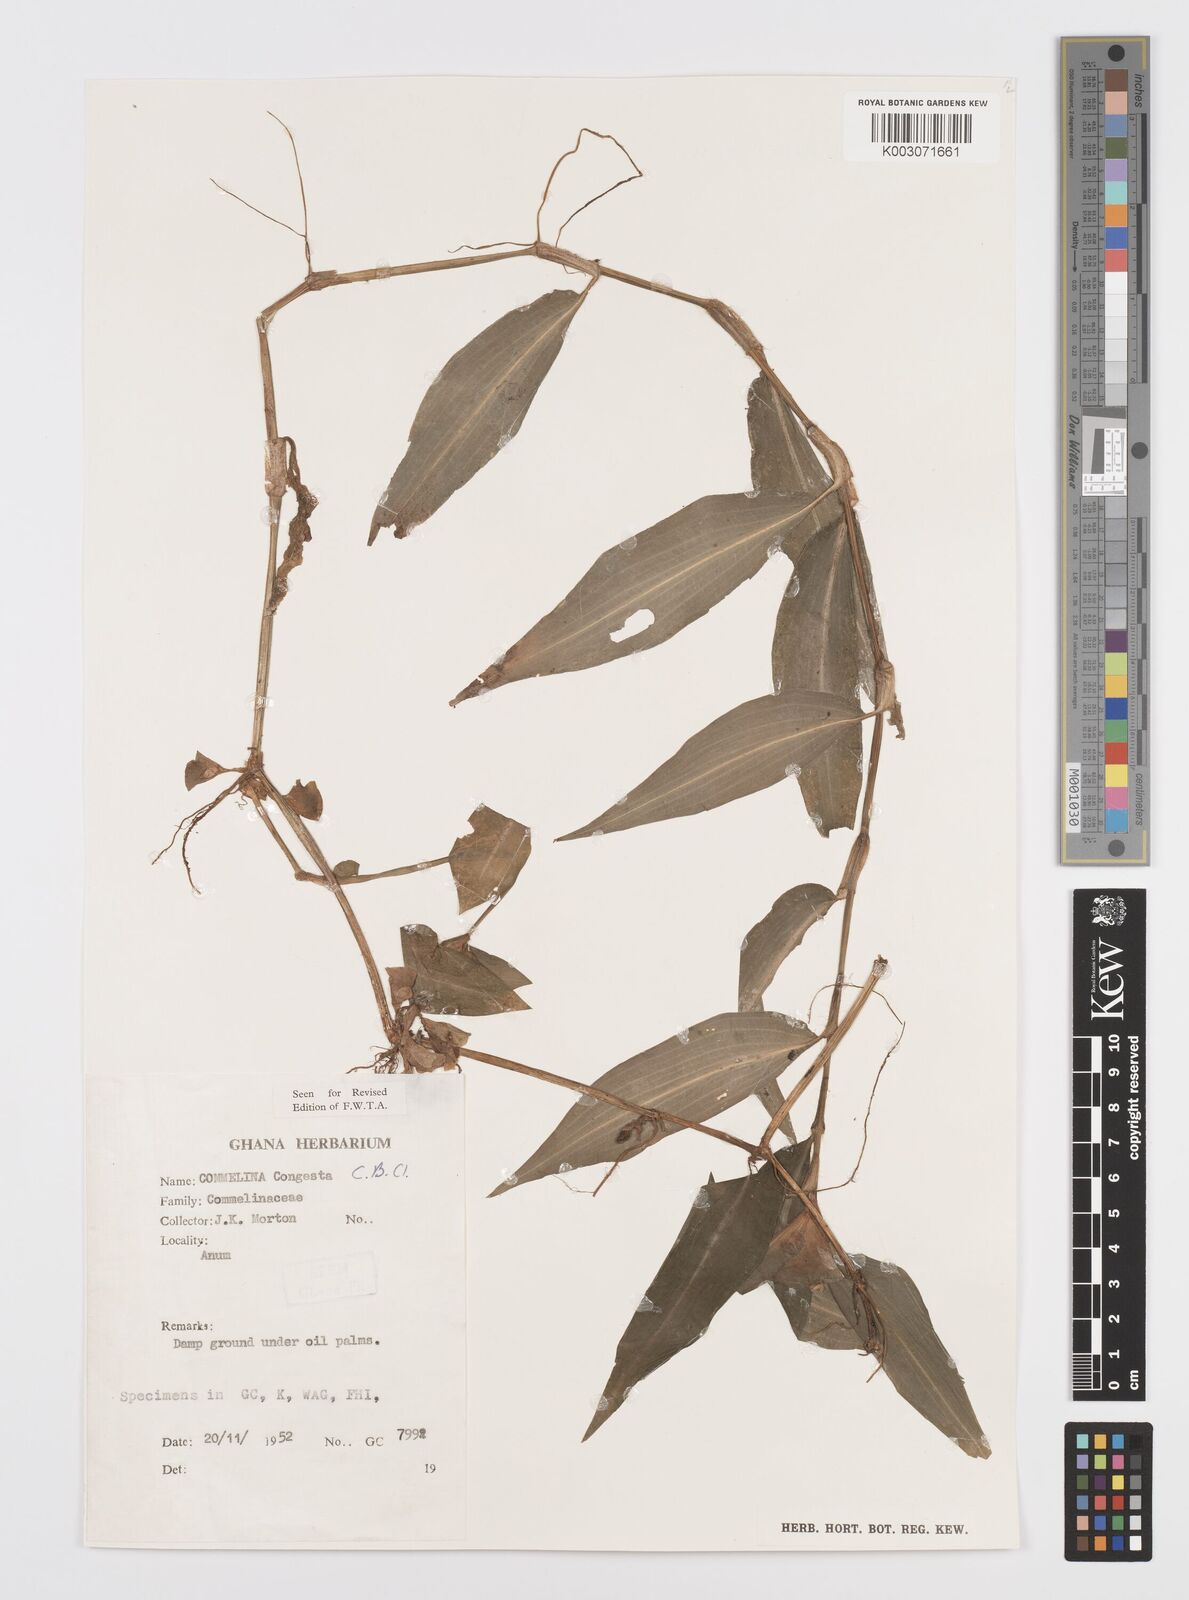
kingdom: Plantae
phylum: Tracheophyta
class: Liliopsida
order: Commelinales
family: Commelinaceae
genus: Commelina
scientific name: Commelina congesta
